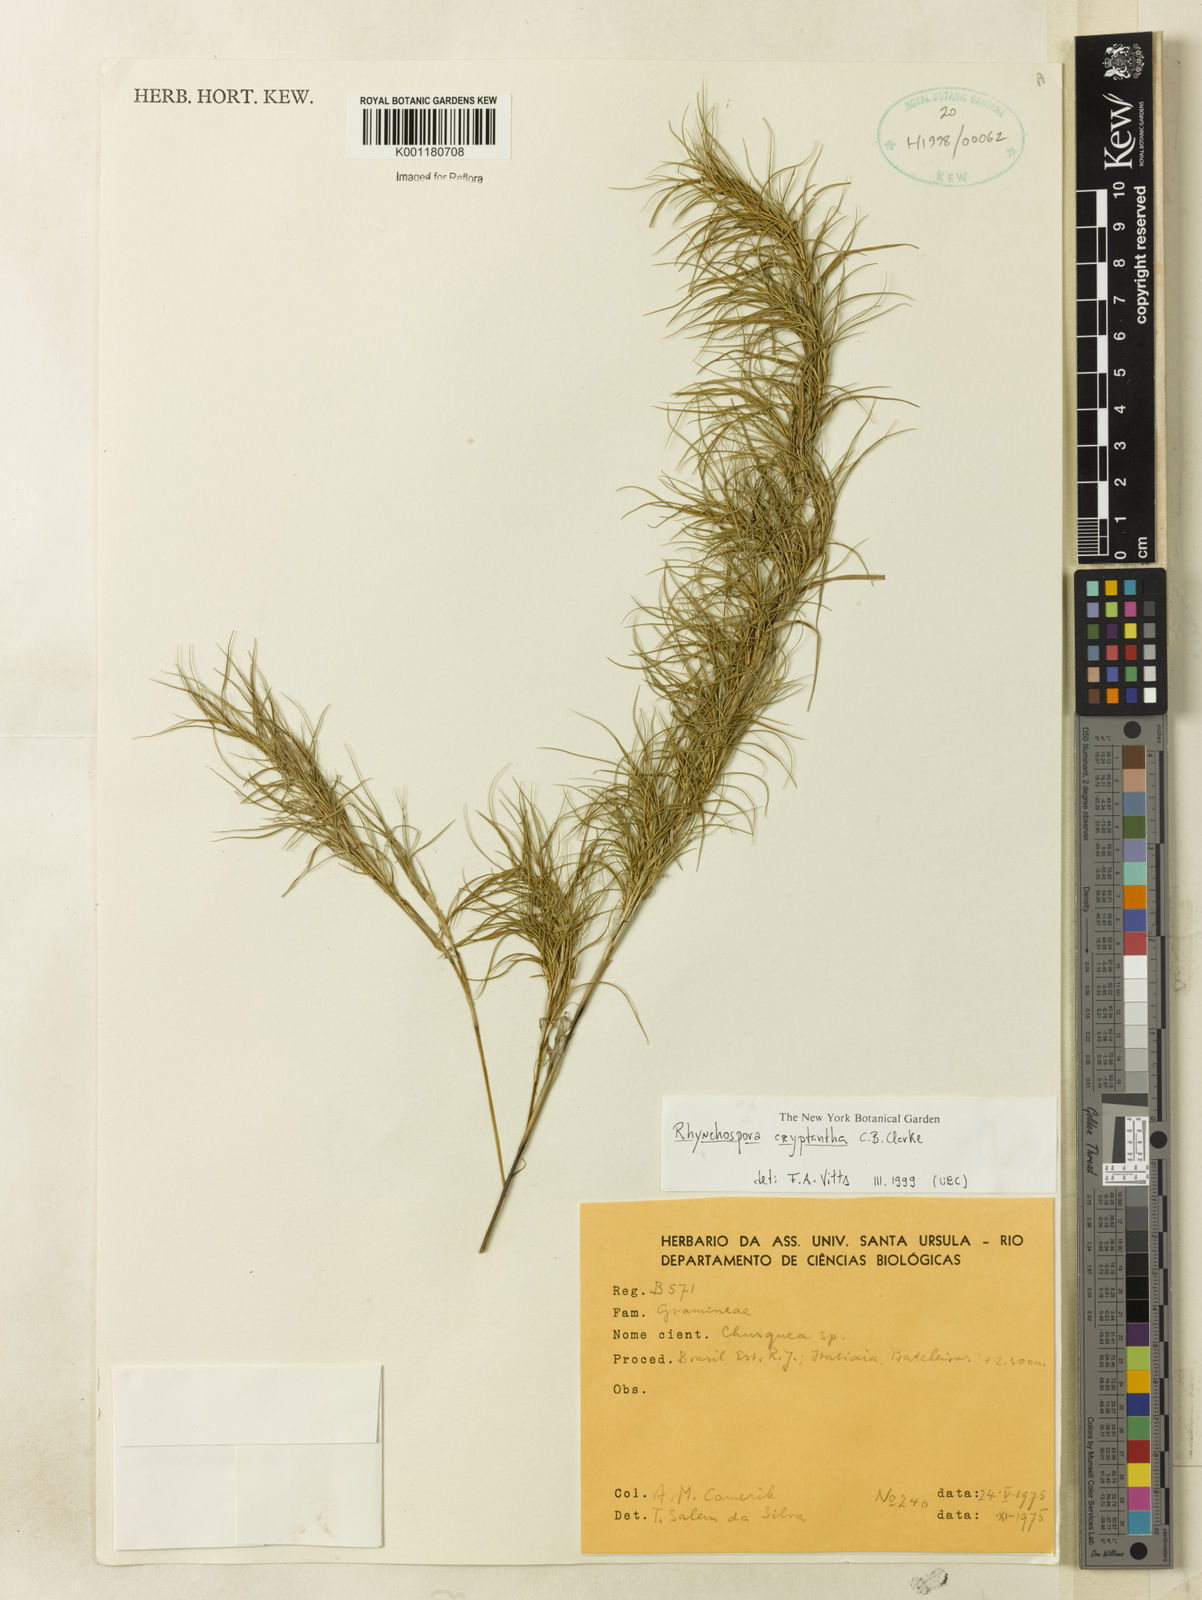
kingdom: Plantae
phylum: Tracheophyta
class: Liliopsida
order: Poales
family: Cyperaceae
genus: Rhynchospora
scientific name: Rhynchospora biflora
